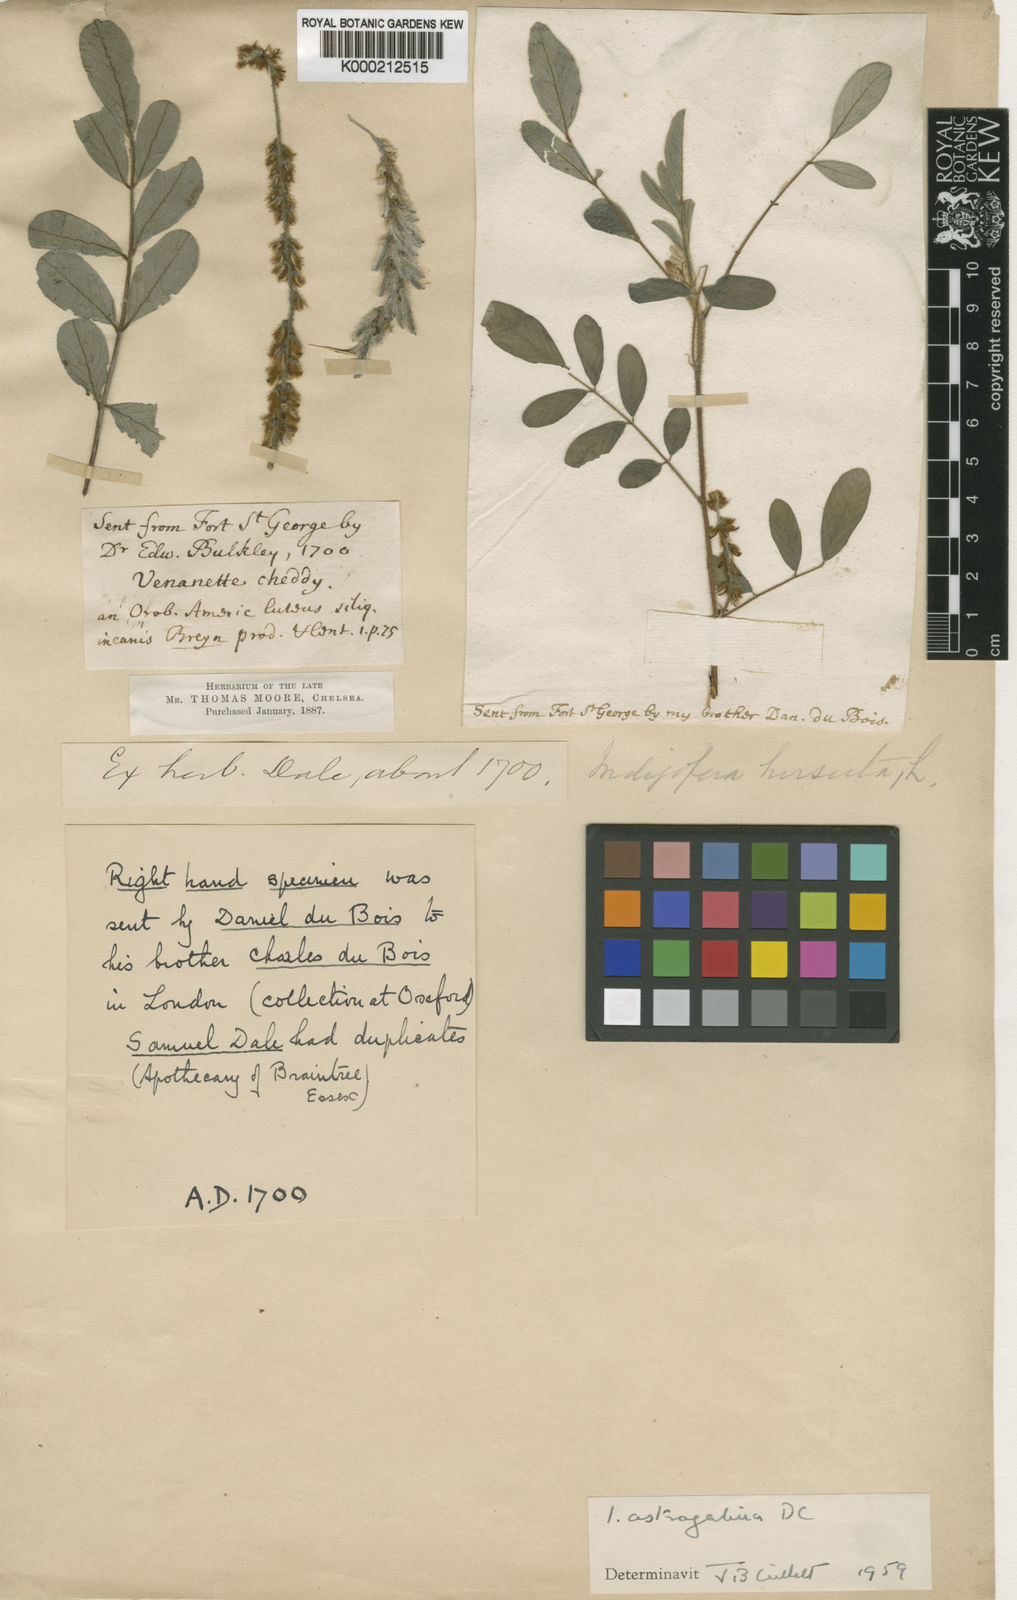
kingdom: Plantae
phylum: Tracheophyta
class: Magnoliopsida
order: Fabales
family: Fabaceae
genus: Indigofera
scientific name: Indigofera astragalina
